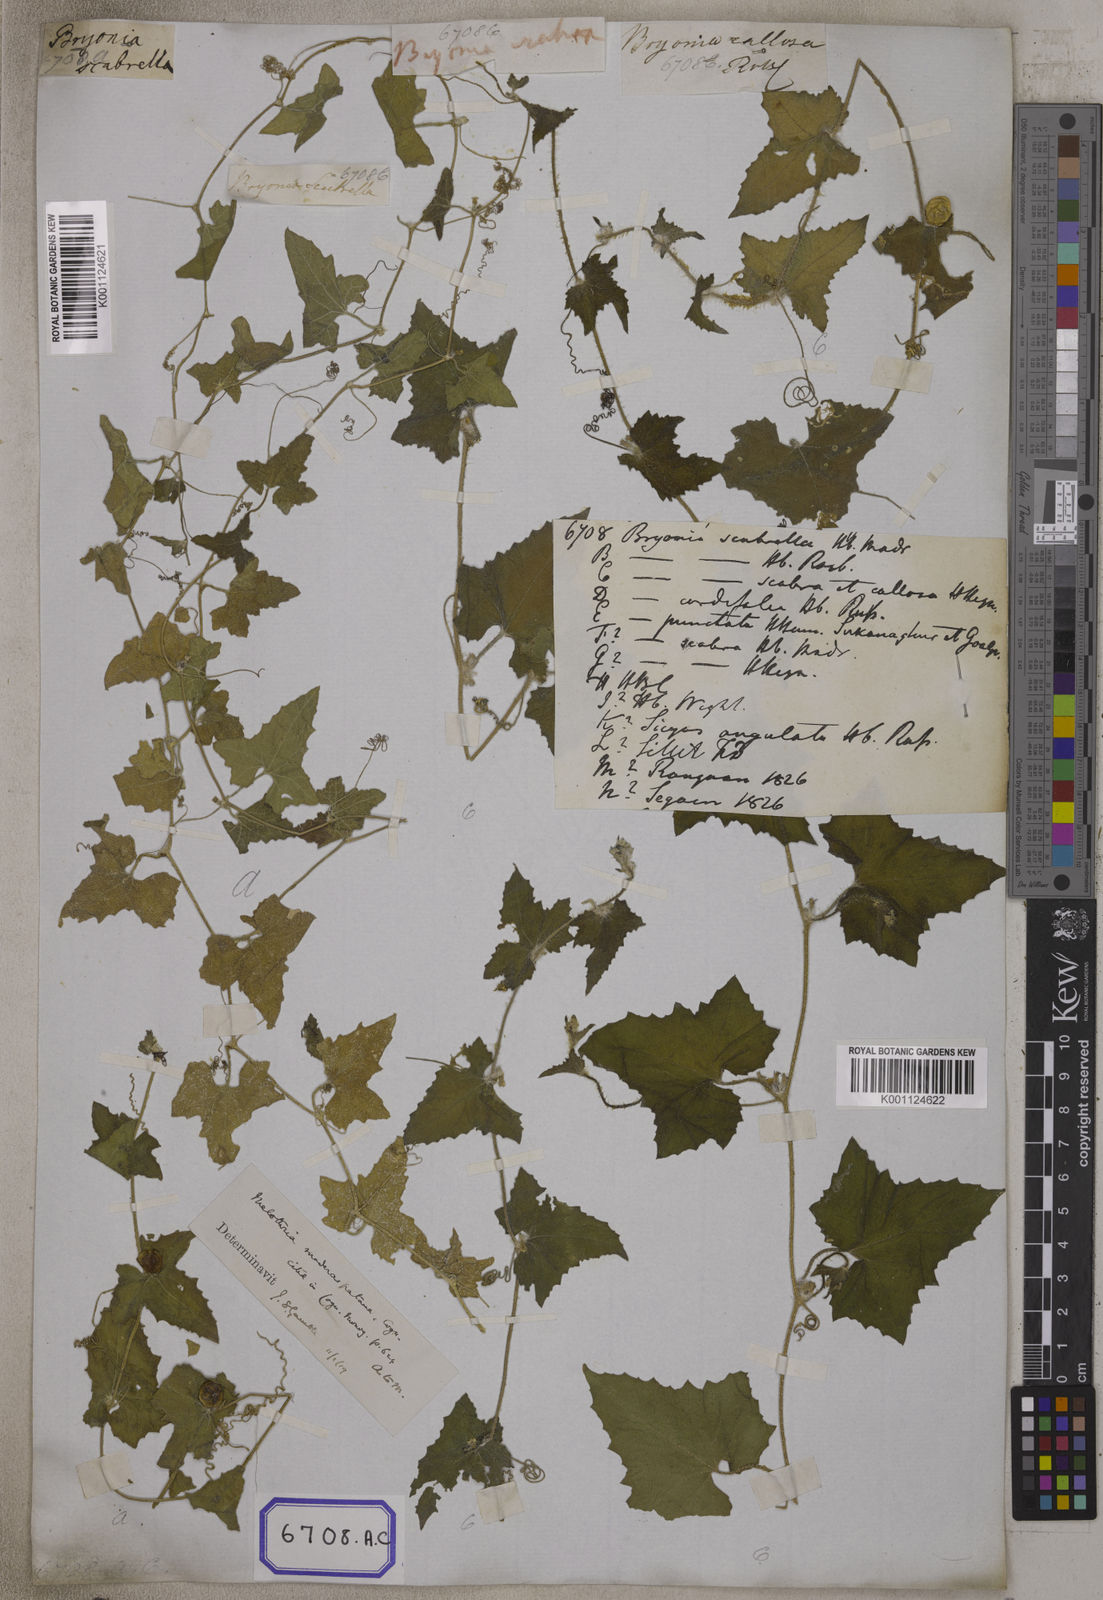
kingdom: Plantae
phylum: Tracheophyta
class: Magnoliopsida
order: Cucurbitales
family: Cucurbitaceae
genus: Bryonia
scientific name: Bryonia
